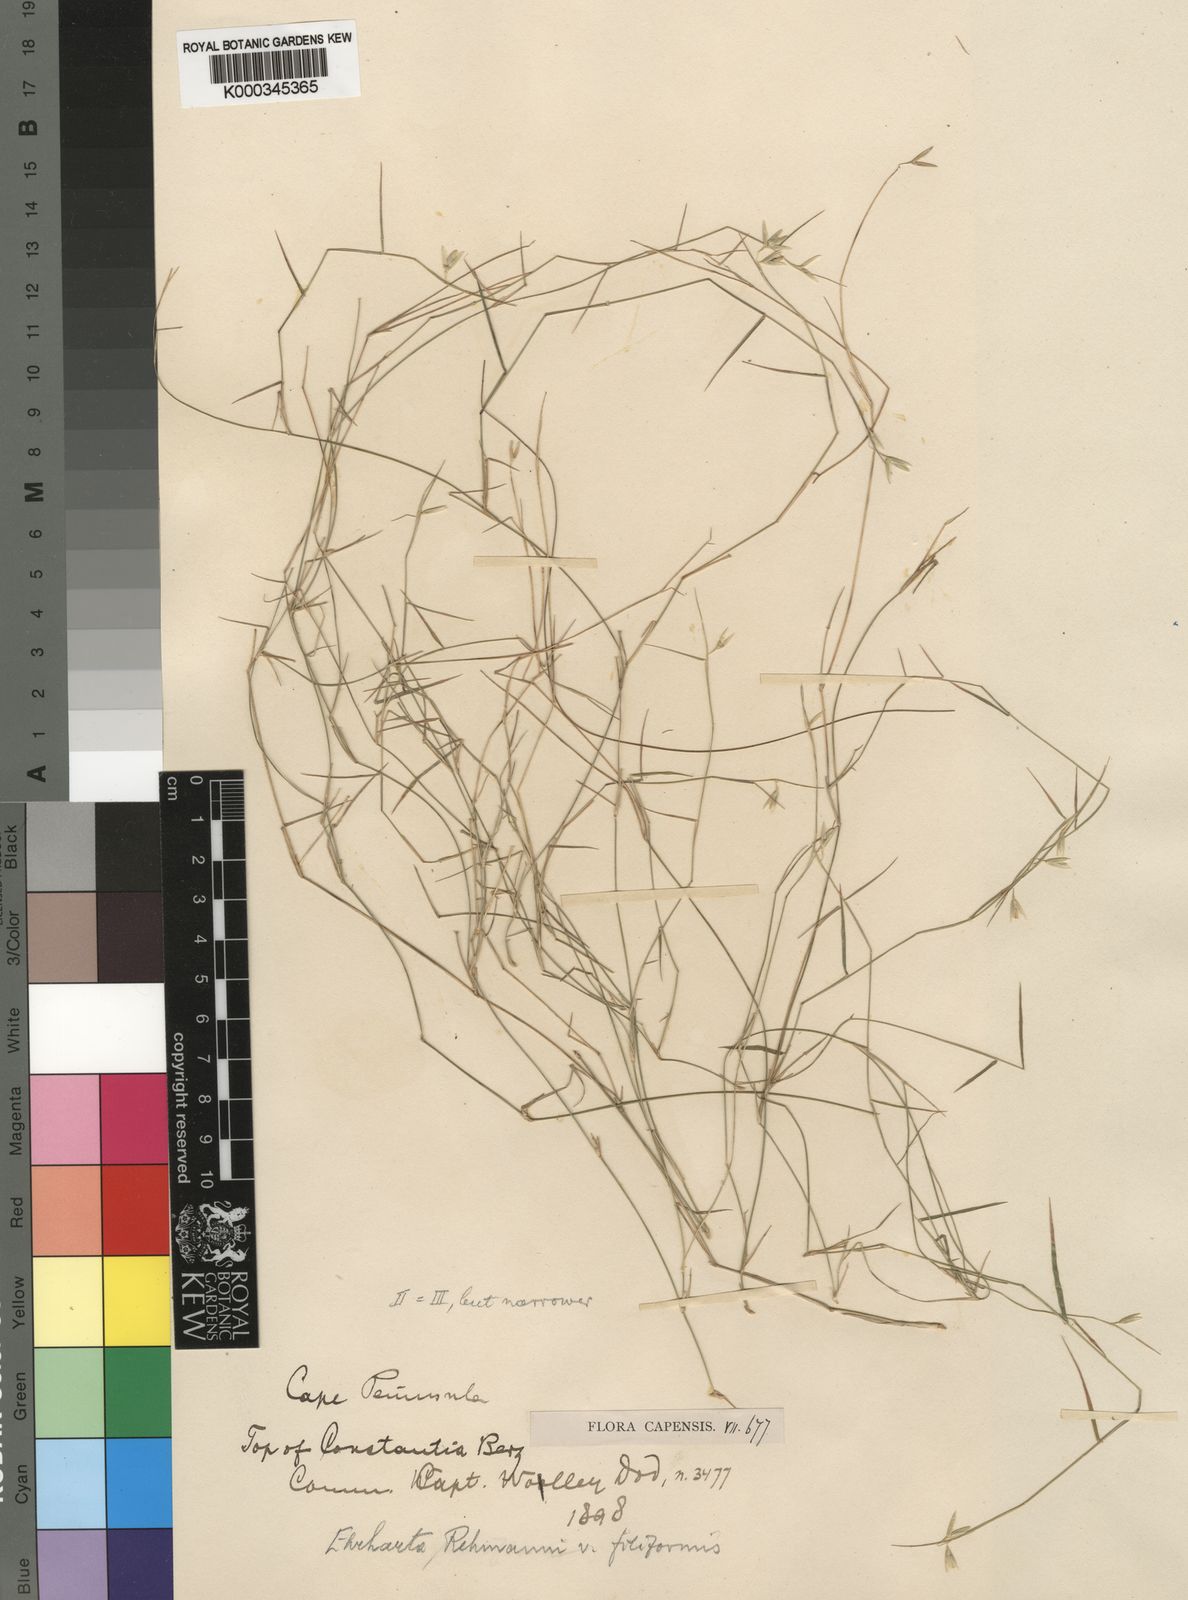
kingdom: Plantae
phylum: Tracheophyta
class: Liliopsida
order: Poales
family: Poaceae
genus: Ehrharta
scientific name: Ehrharta rehmannii
